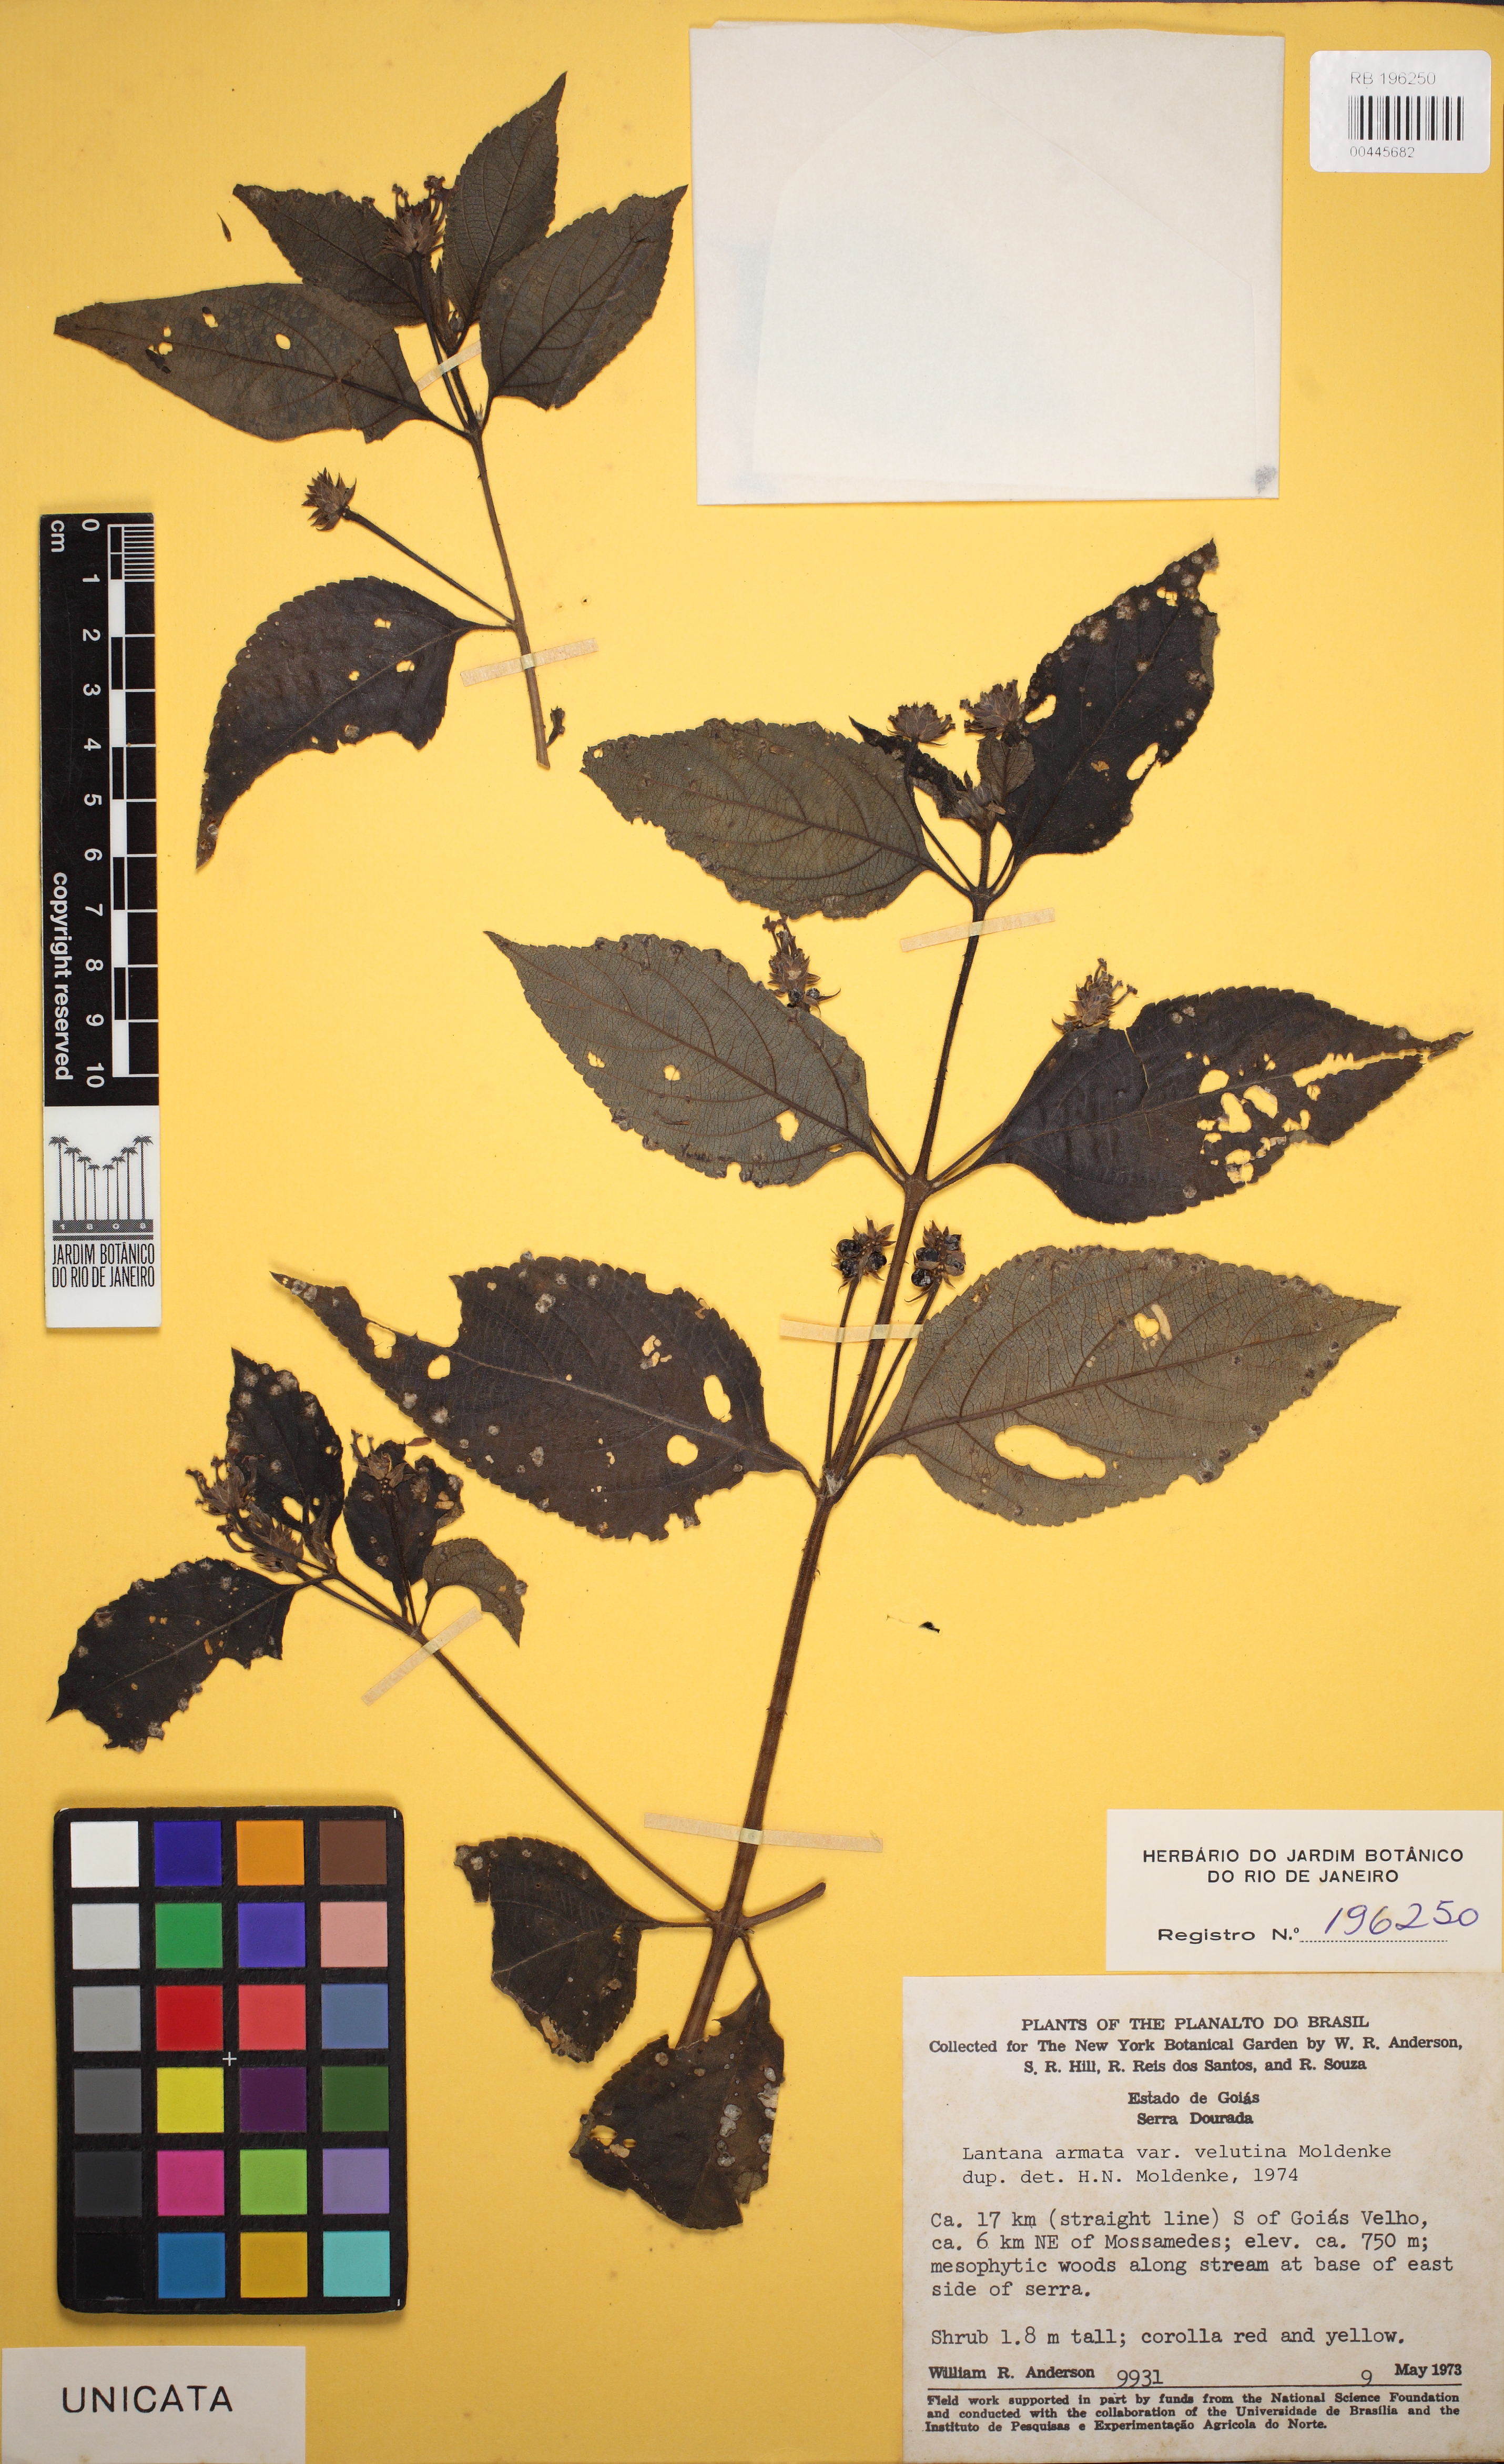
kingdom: Plantae
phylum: Tracheophyta
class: Magnoliopsida
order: Lamiales
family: Verbenaceae
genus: Lantana
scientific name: Lantana armata
